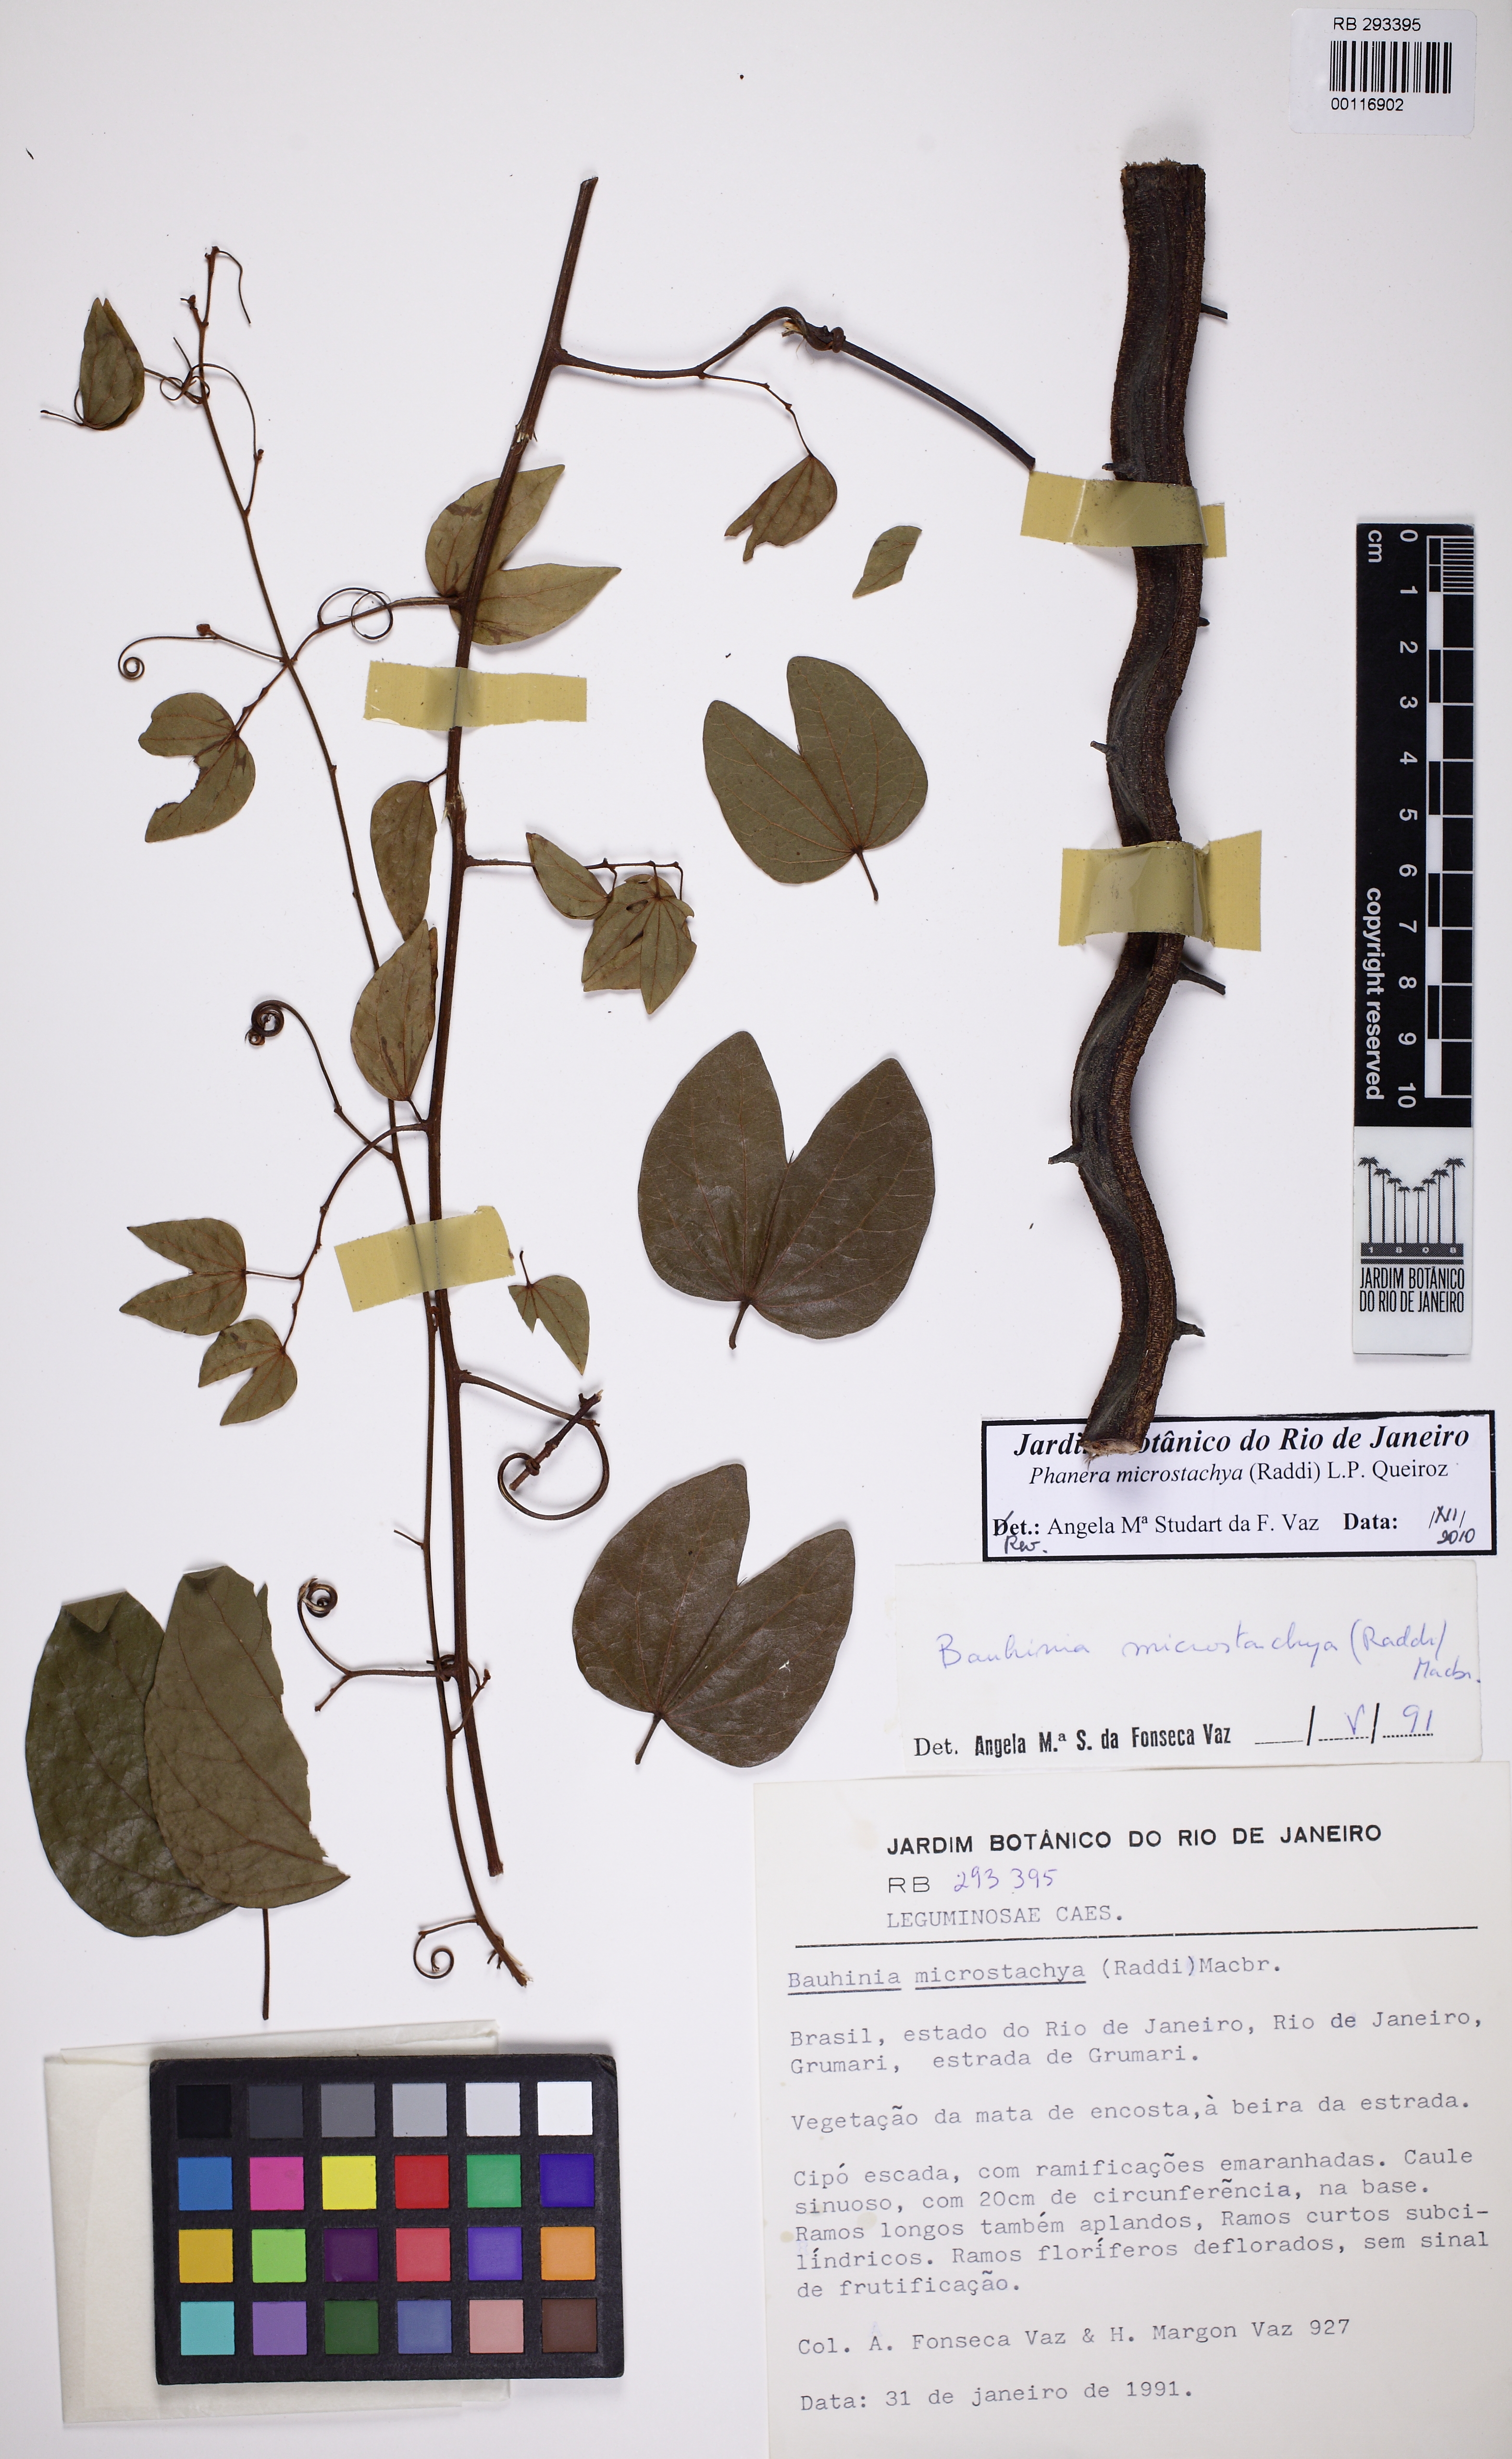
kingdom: Plantae
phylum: Tracheophyta
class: Magnoliopsida
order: Fabales
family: Fabaceae
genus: Schnella
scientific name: Schnella microstachya
